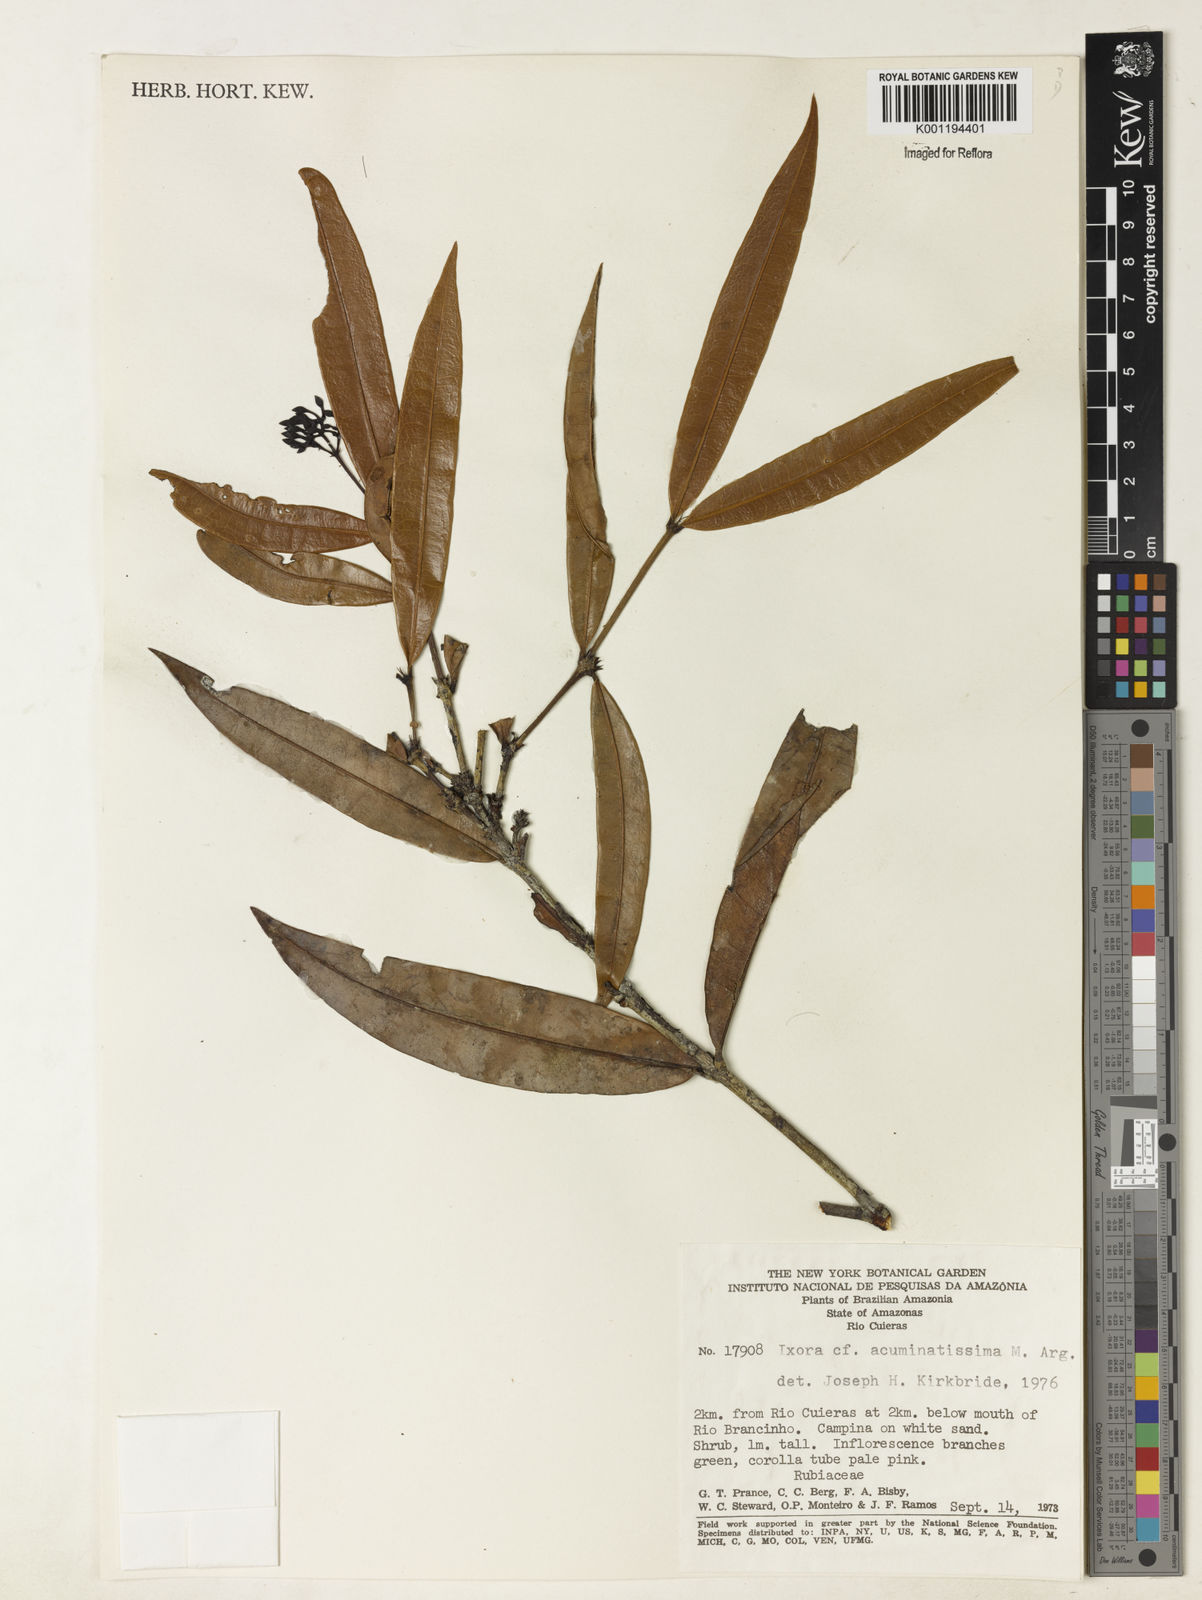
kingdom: Plantae
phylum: Tracheophyta
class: Magnoliopsida
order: Gentianales
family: Rubiaceae
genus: Ixora
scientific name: Ixora
